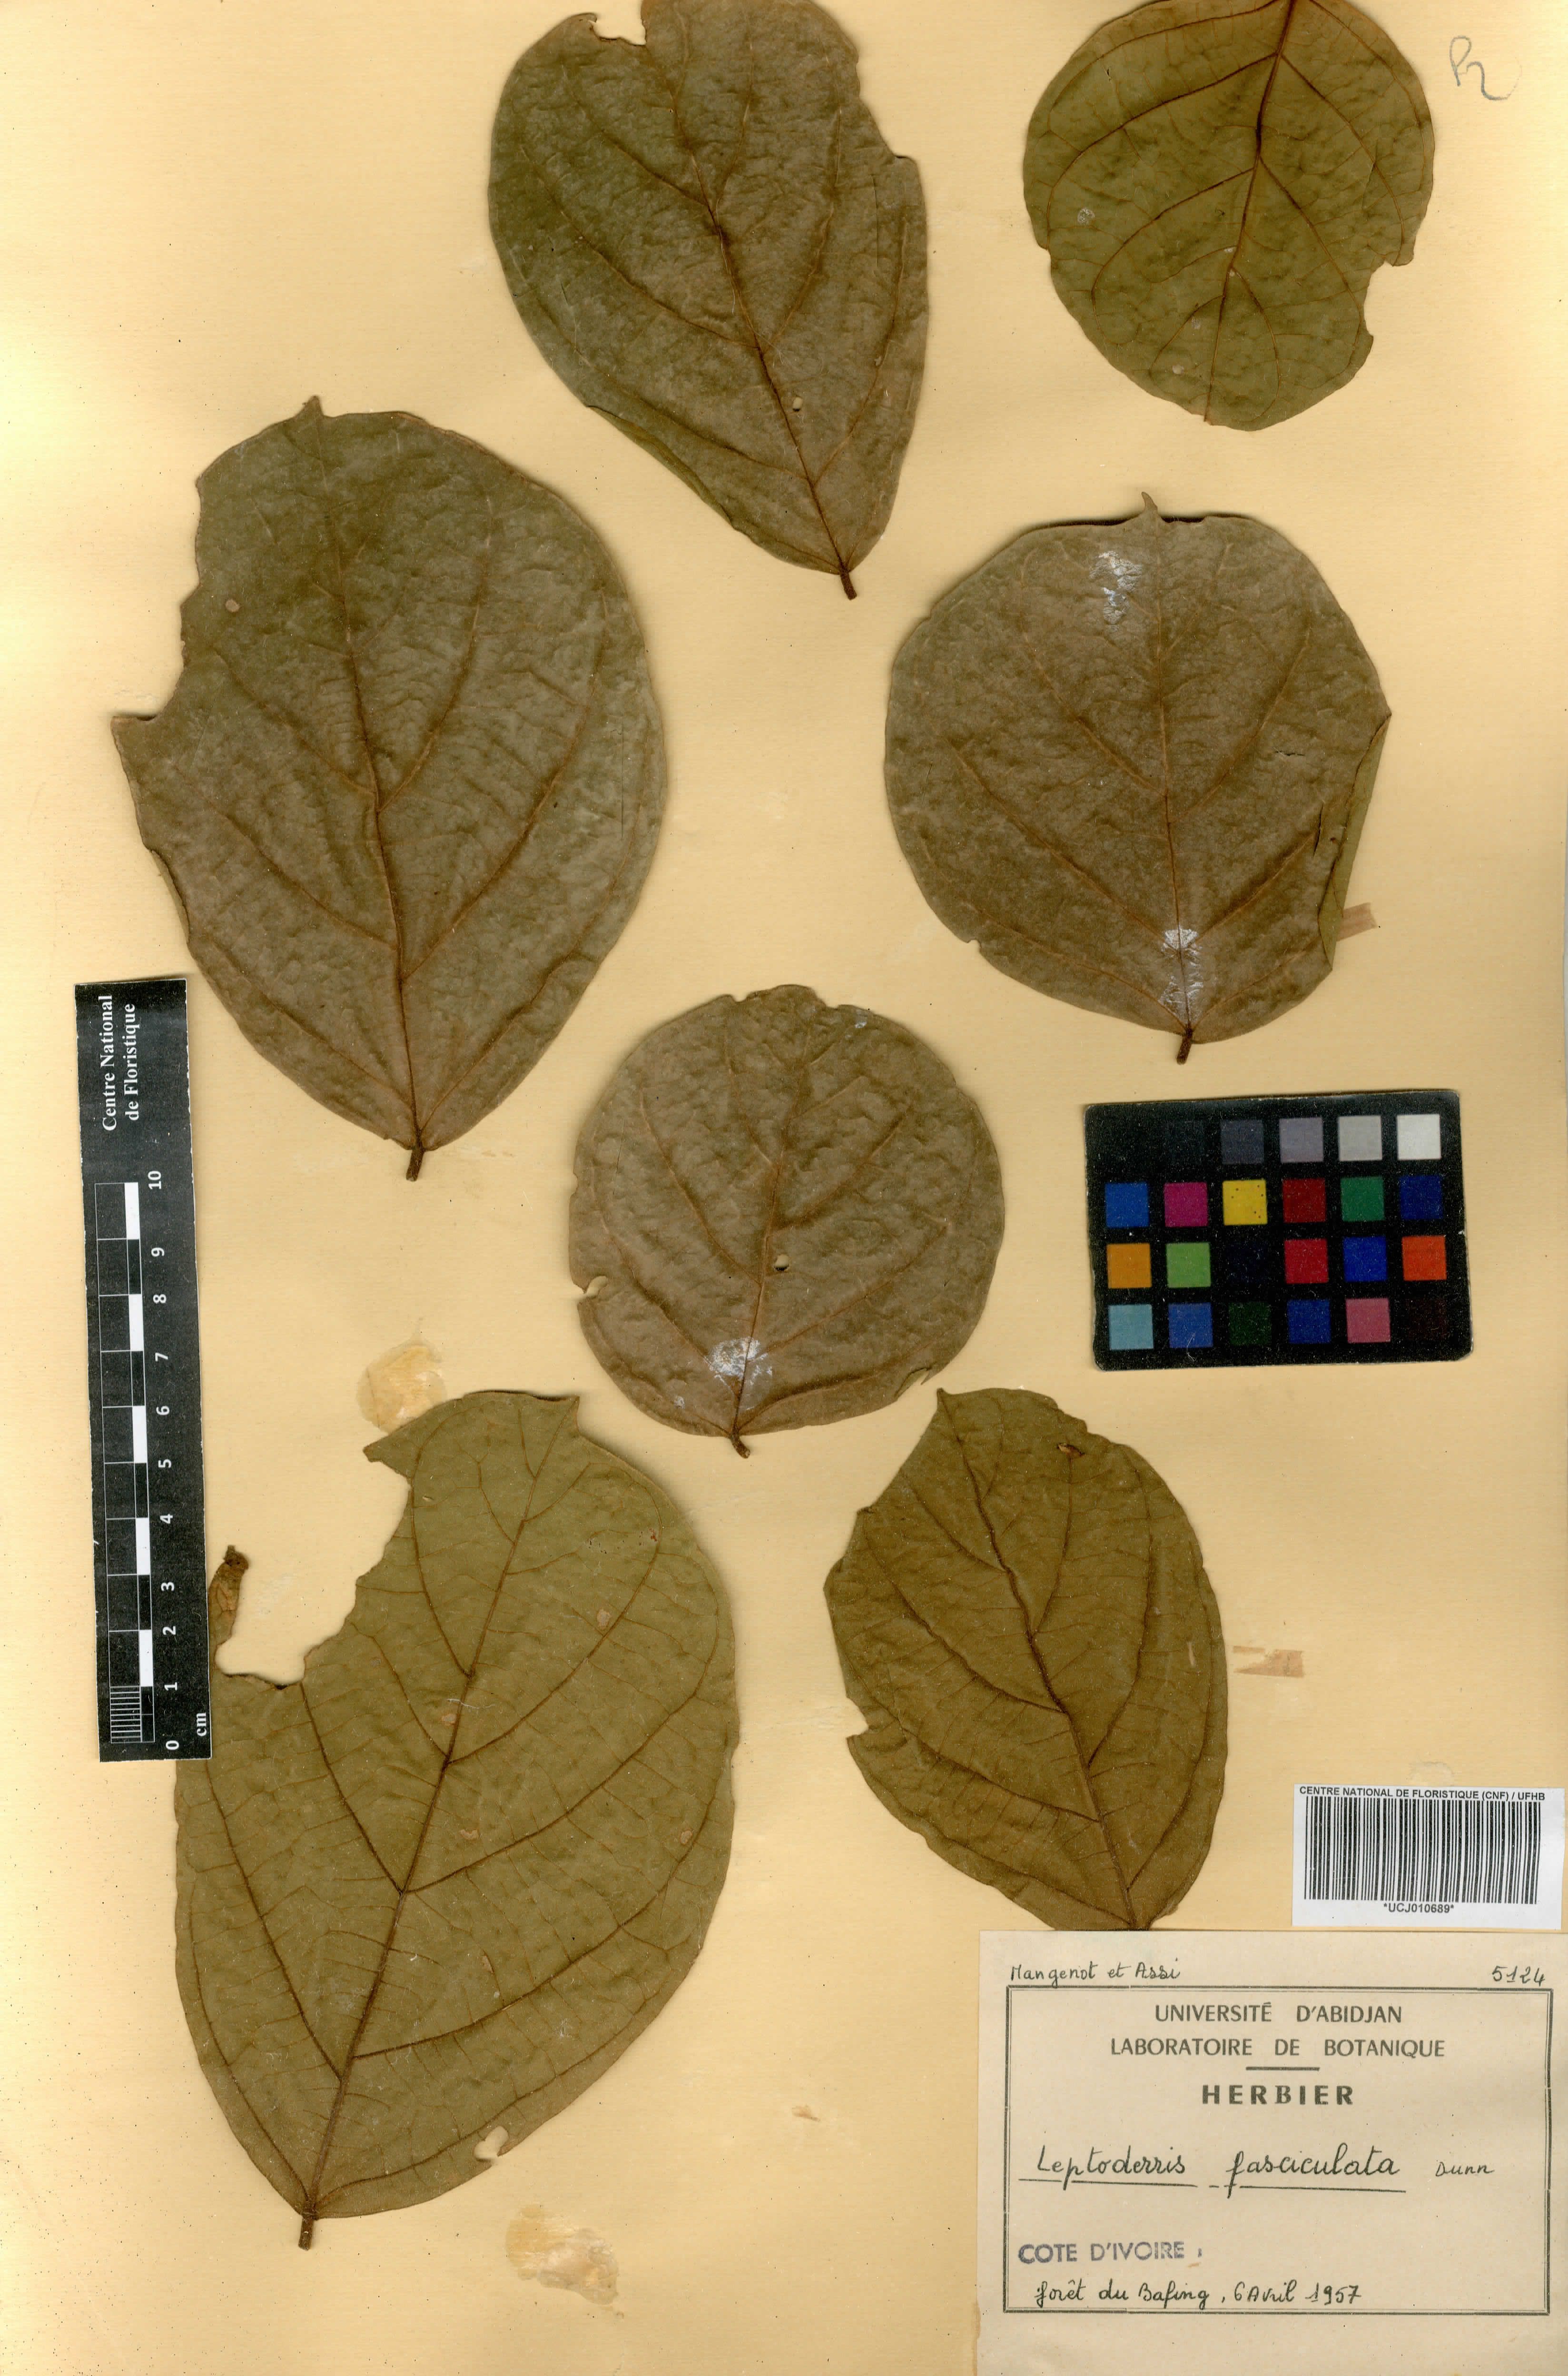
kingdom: Plantae
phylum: Tracheophyta
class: Magnoliopsida
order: Fabales
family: Fabaceae
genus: Leptoderris
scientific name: Leptoderris fasciculata
